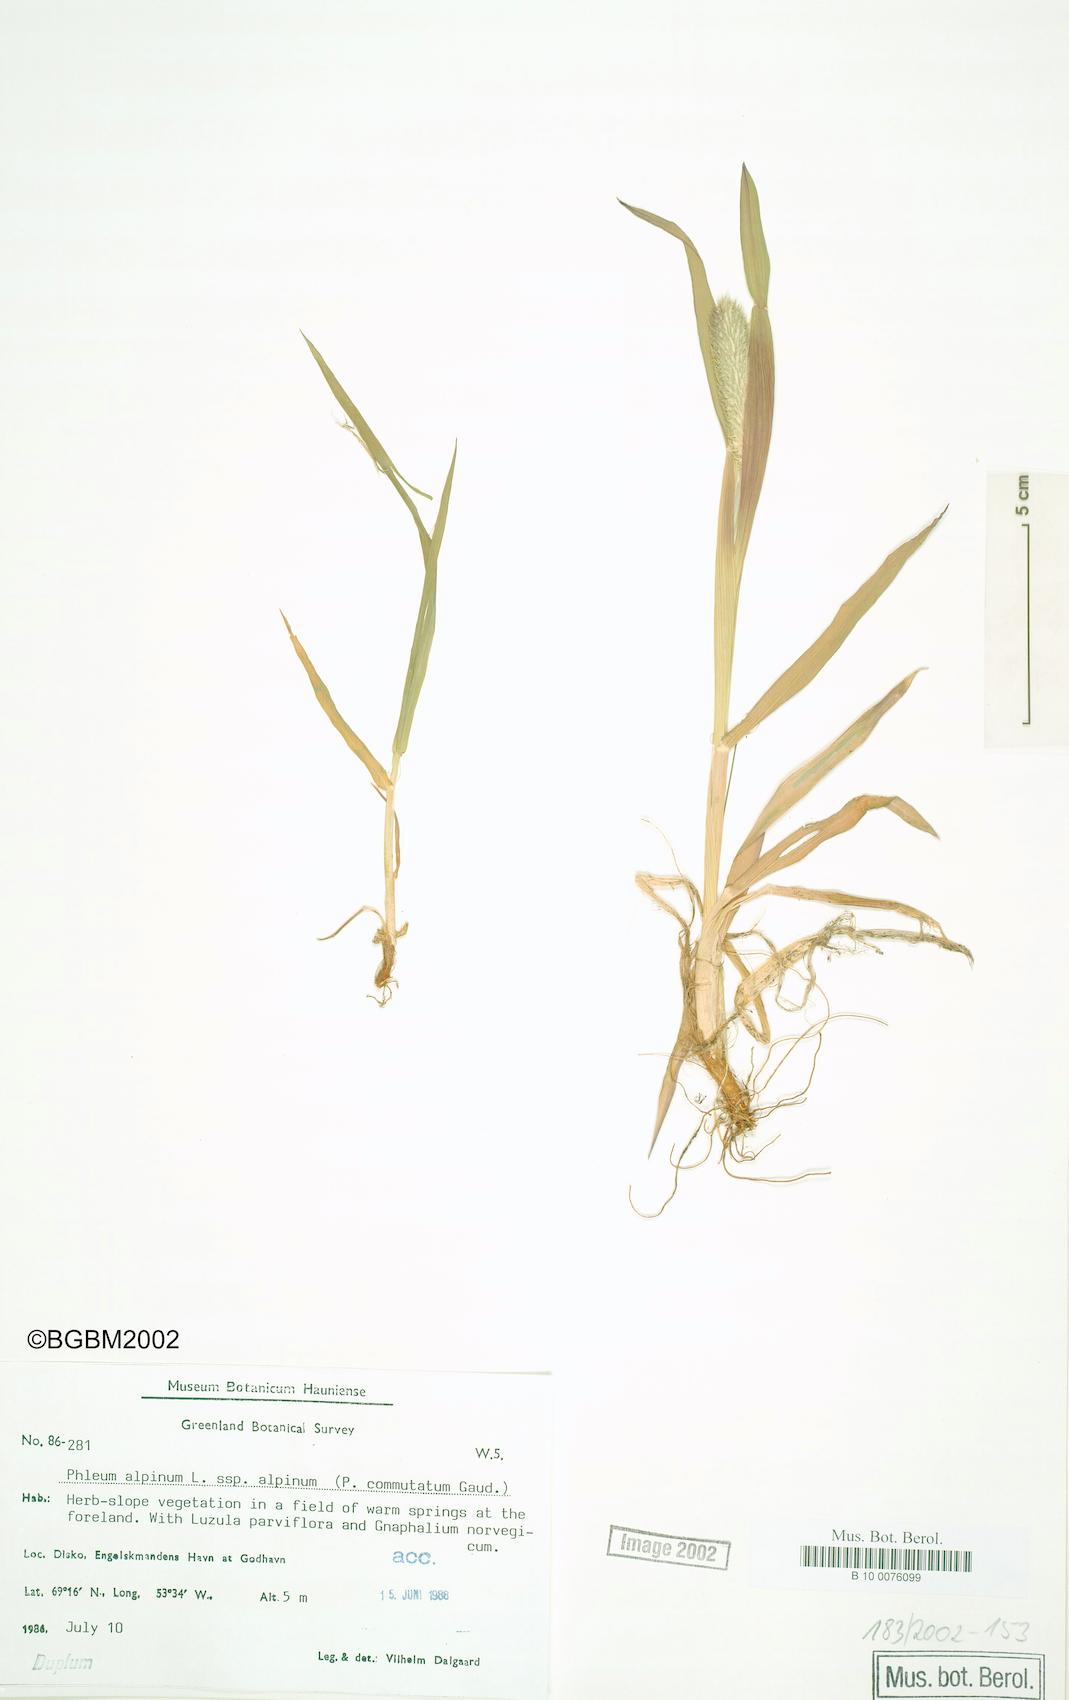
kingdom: Plantae
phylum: Tracheophyta
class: Liliopsida
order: Poales
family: Poaceae
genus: Phleum
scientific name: Phleum alpinum
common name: Alpine cat's-tail
